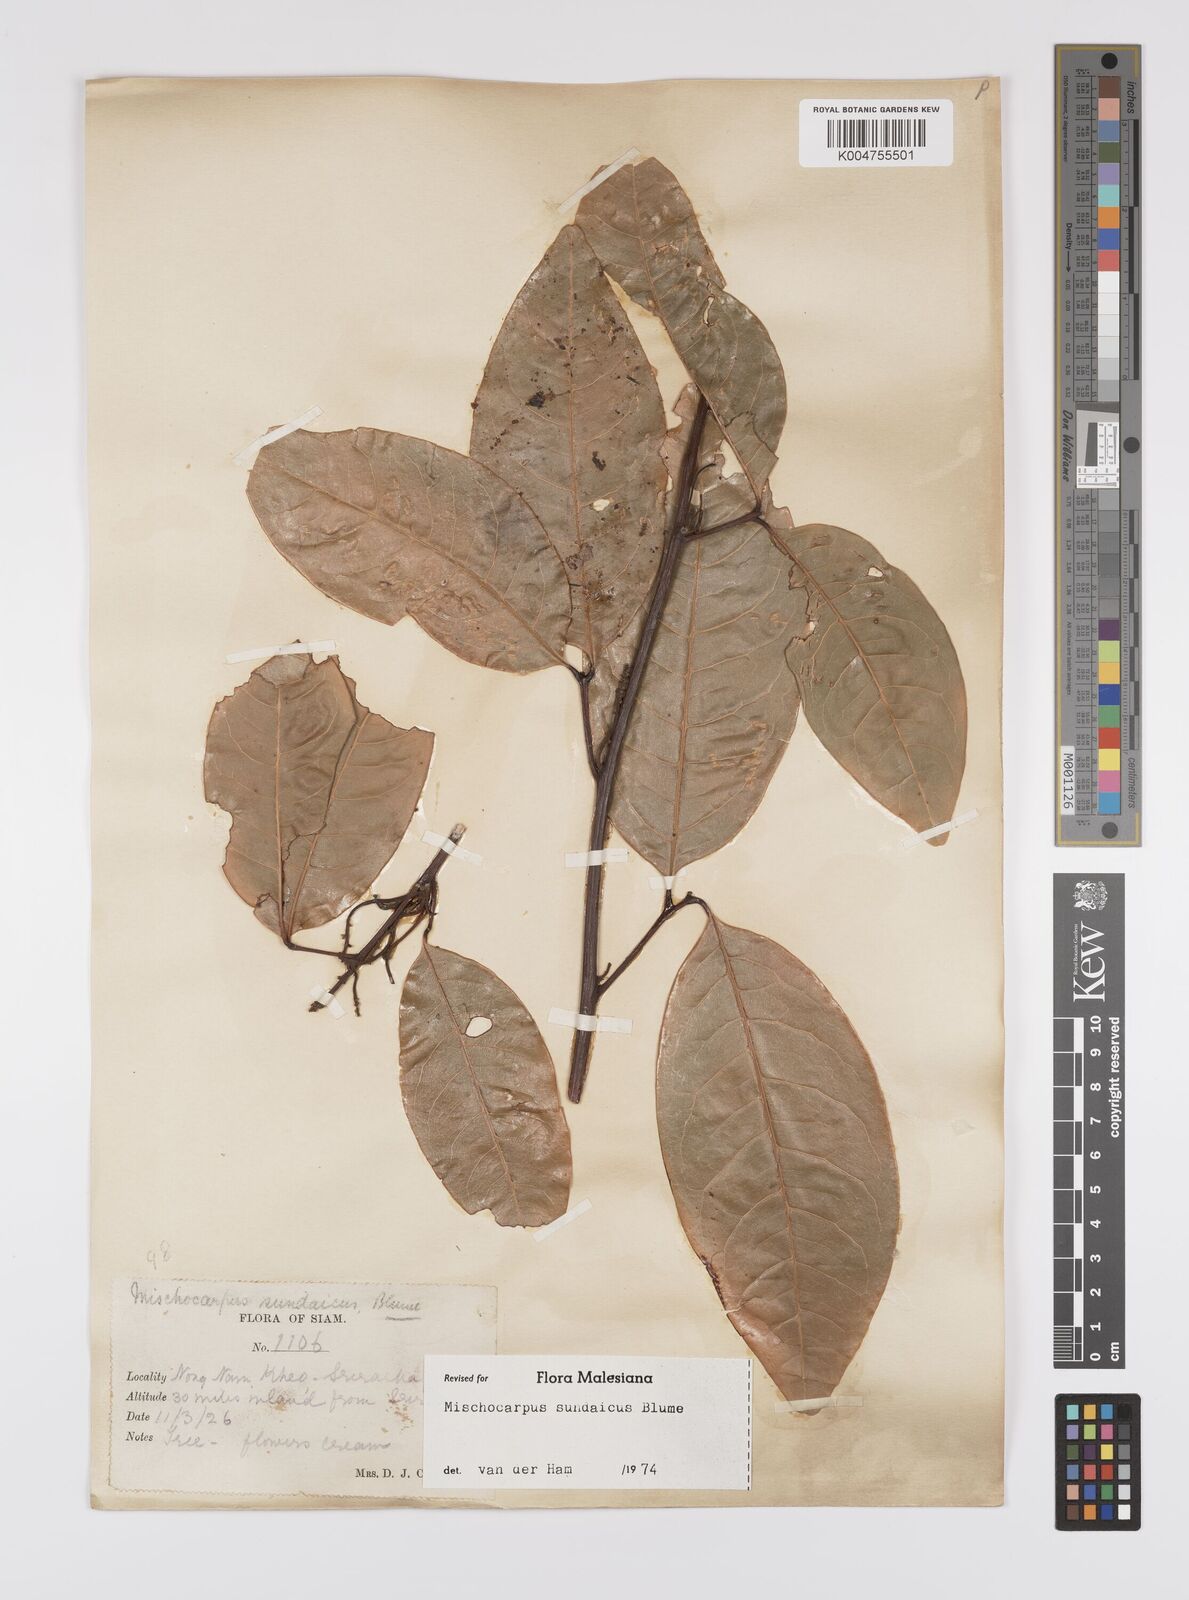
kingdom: Plantae
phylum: Tracheophyta
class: Magnoliopsida
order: Sapindales
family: Sapindaceae
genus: Mischocarpus
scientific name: Mischocarpus sundaicus
